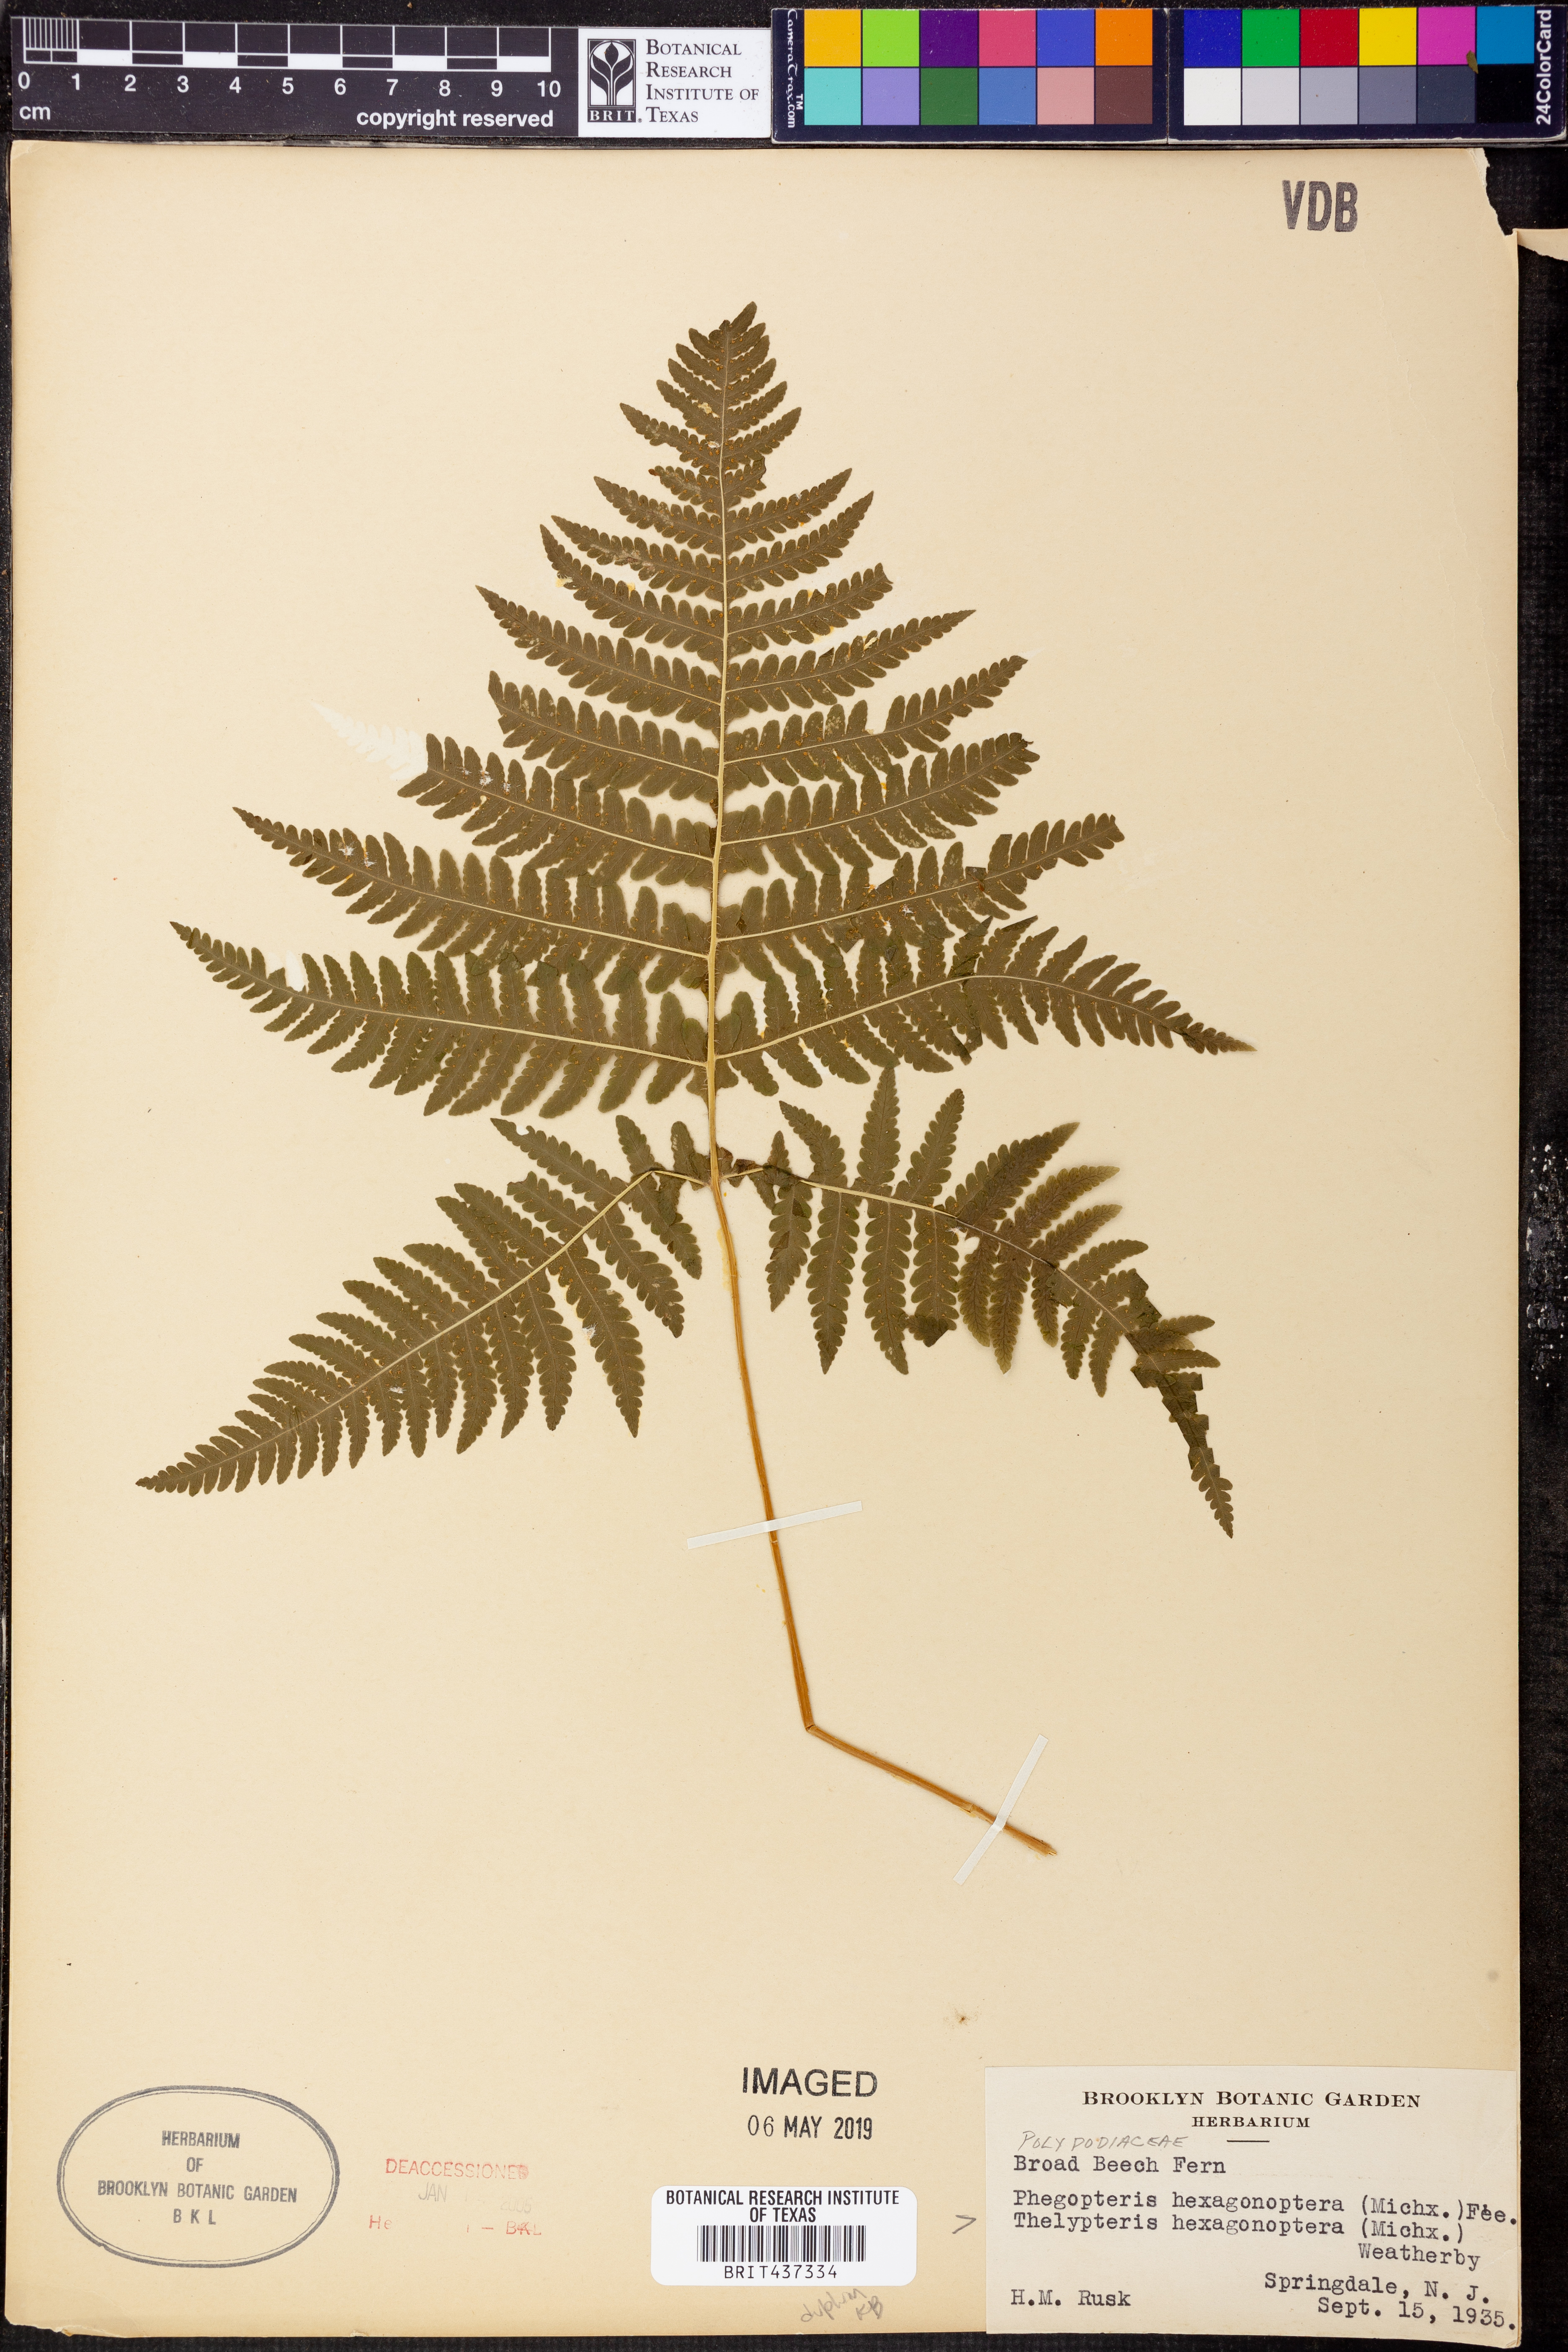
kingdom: Plantae
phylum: Tracheophyta
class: Polypodiopsida
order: Polypodiales
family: Thelypteridaceae
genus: Phegopteris
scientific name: Phegopteris hexagonoptera
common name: Broad beech fern
